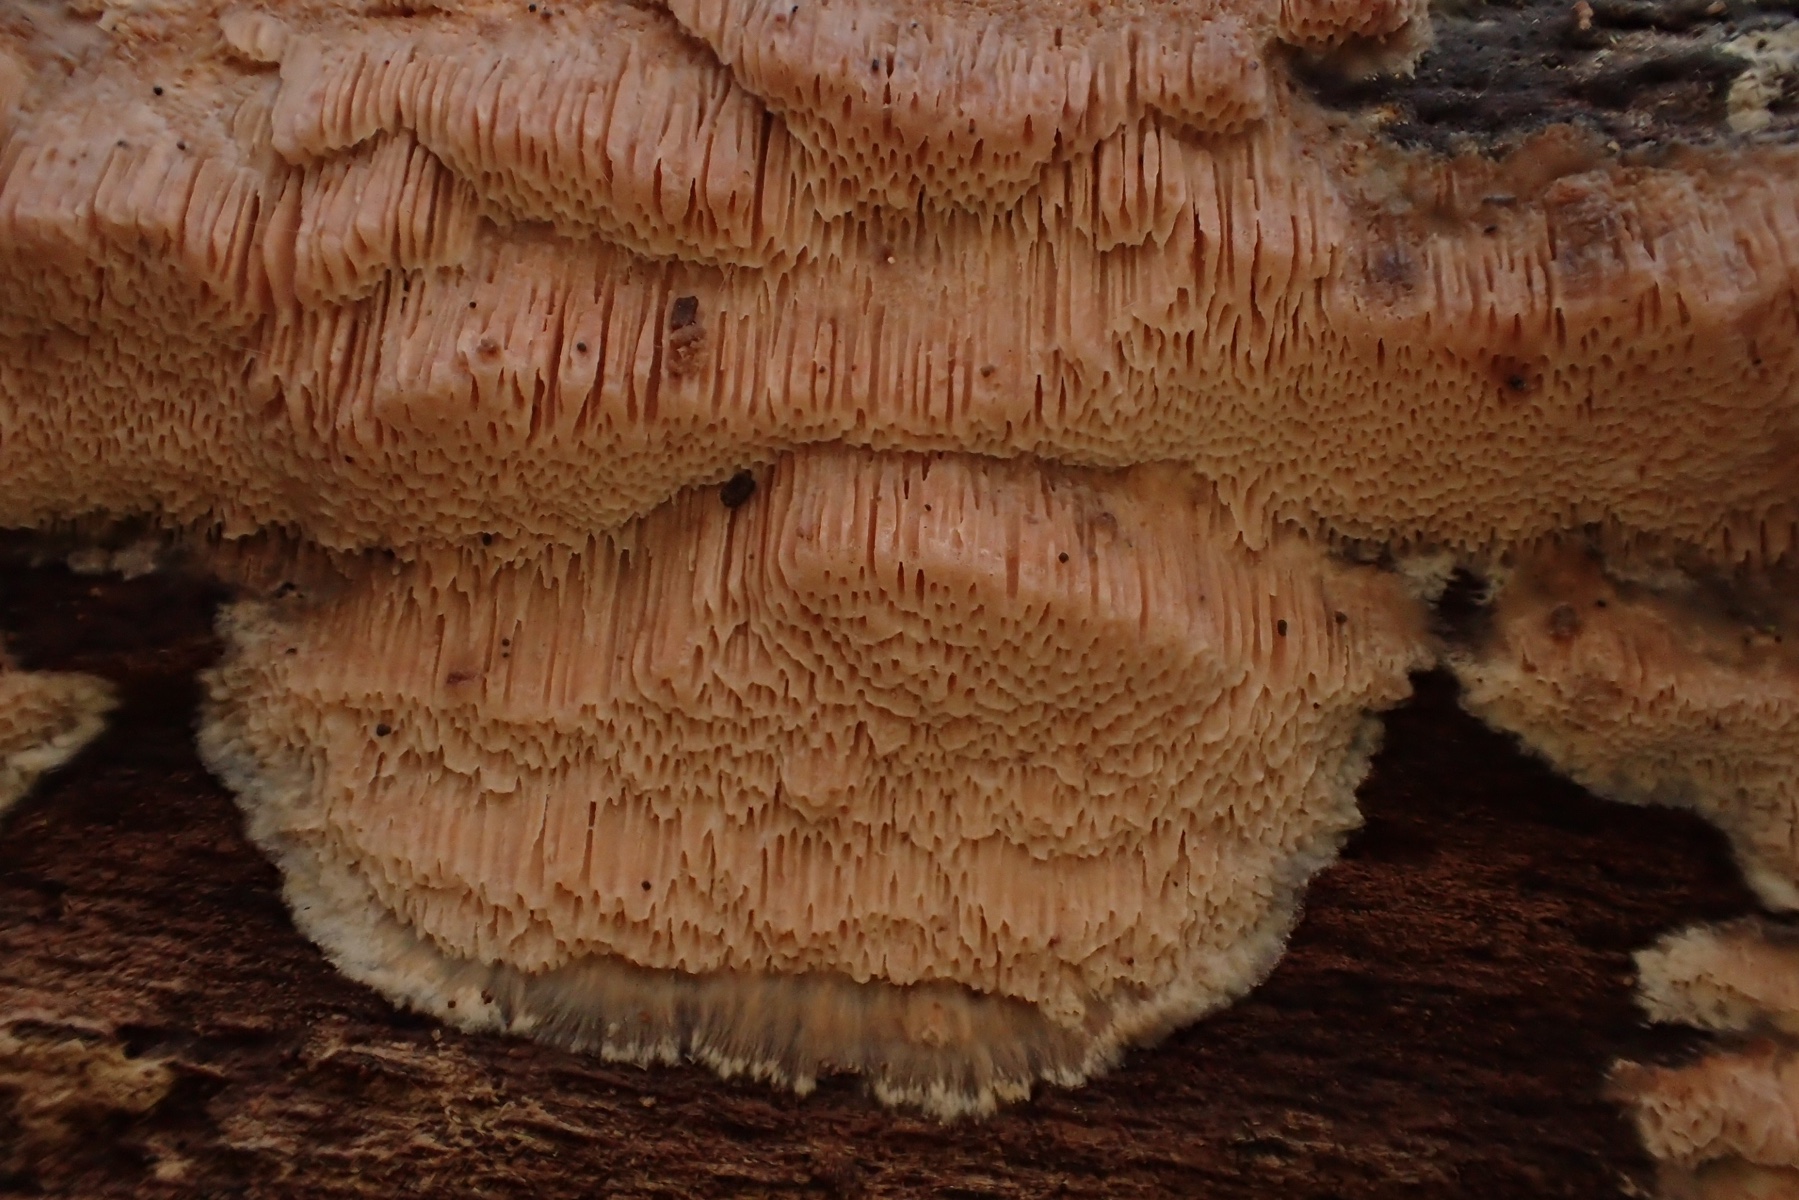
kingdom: Fungi
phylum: Basidiomycota
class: Agaricomycetes
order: Polyporales
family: Meruliaceae
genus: Mycoacia
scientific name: Mycoacia gilvescens
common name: rosa pastelporesvamp
